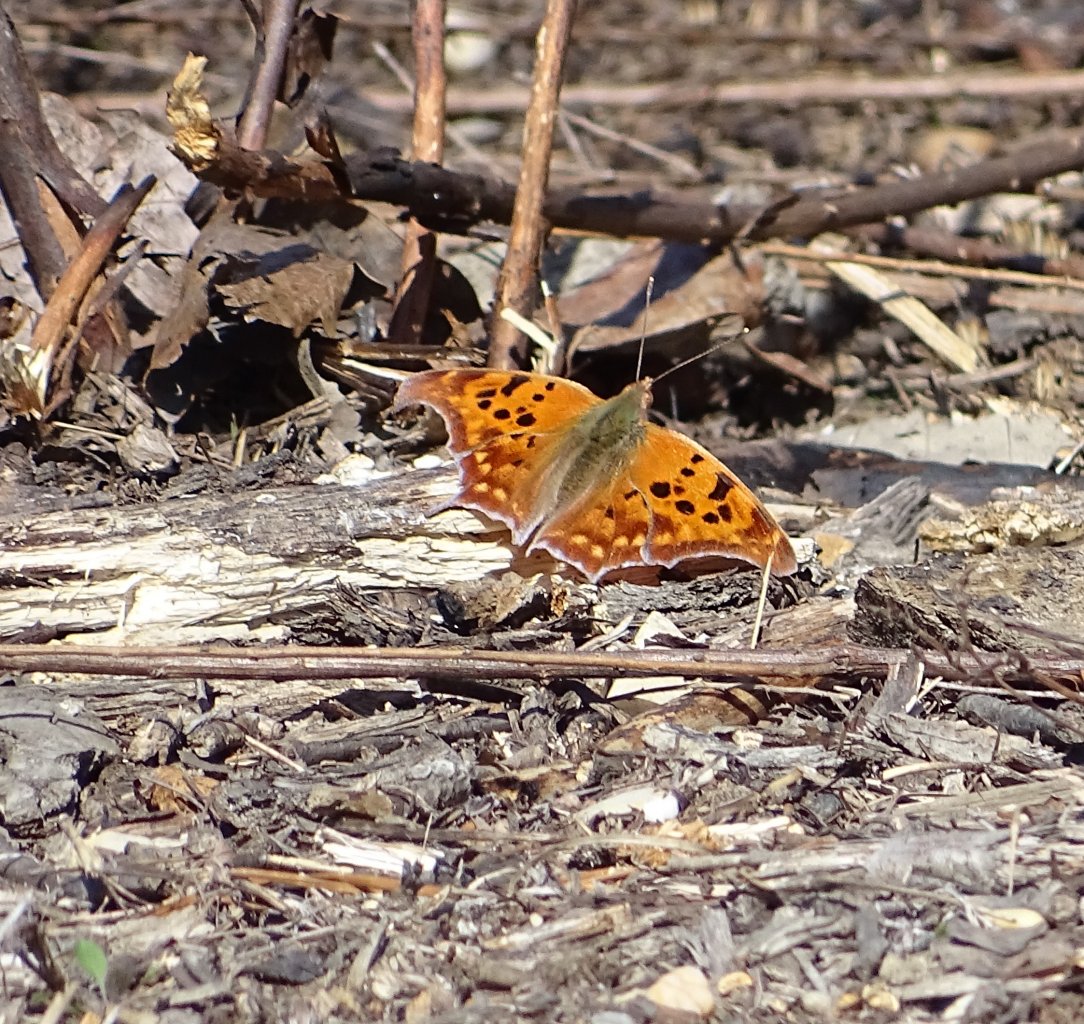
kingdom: Animalia
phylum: Arthropoda
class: Insecta
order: Lepidoptera
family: Nymphalidae
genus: Polygonia
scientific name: Polygonia interrogationis
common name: Question Mark
